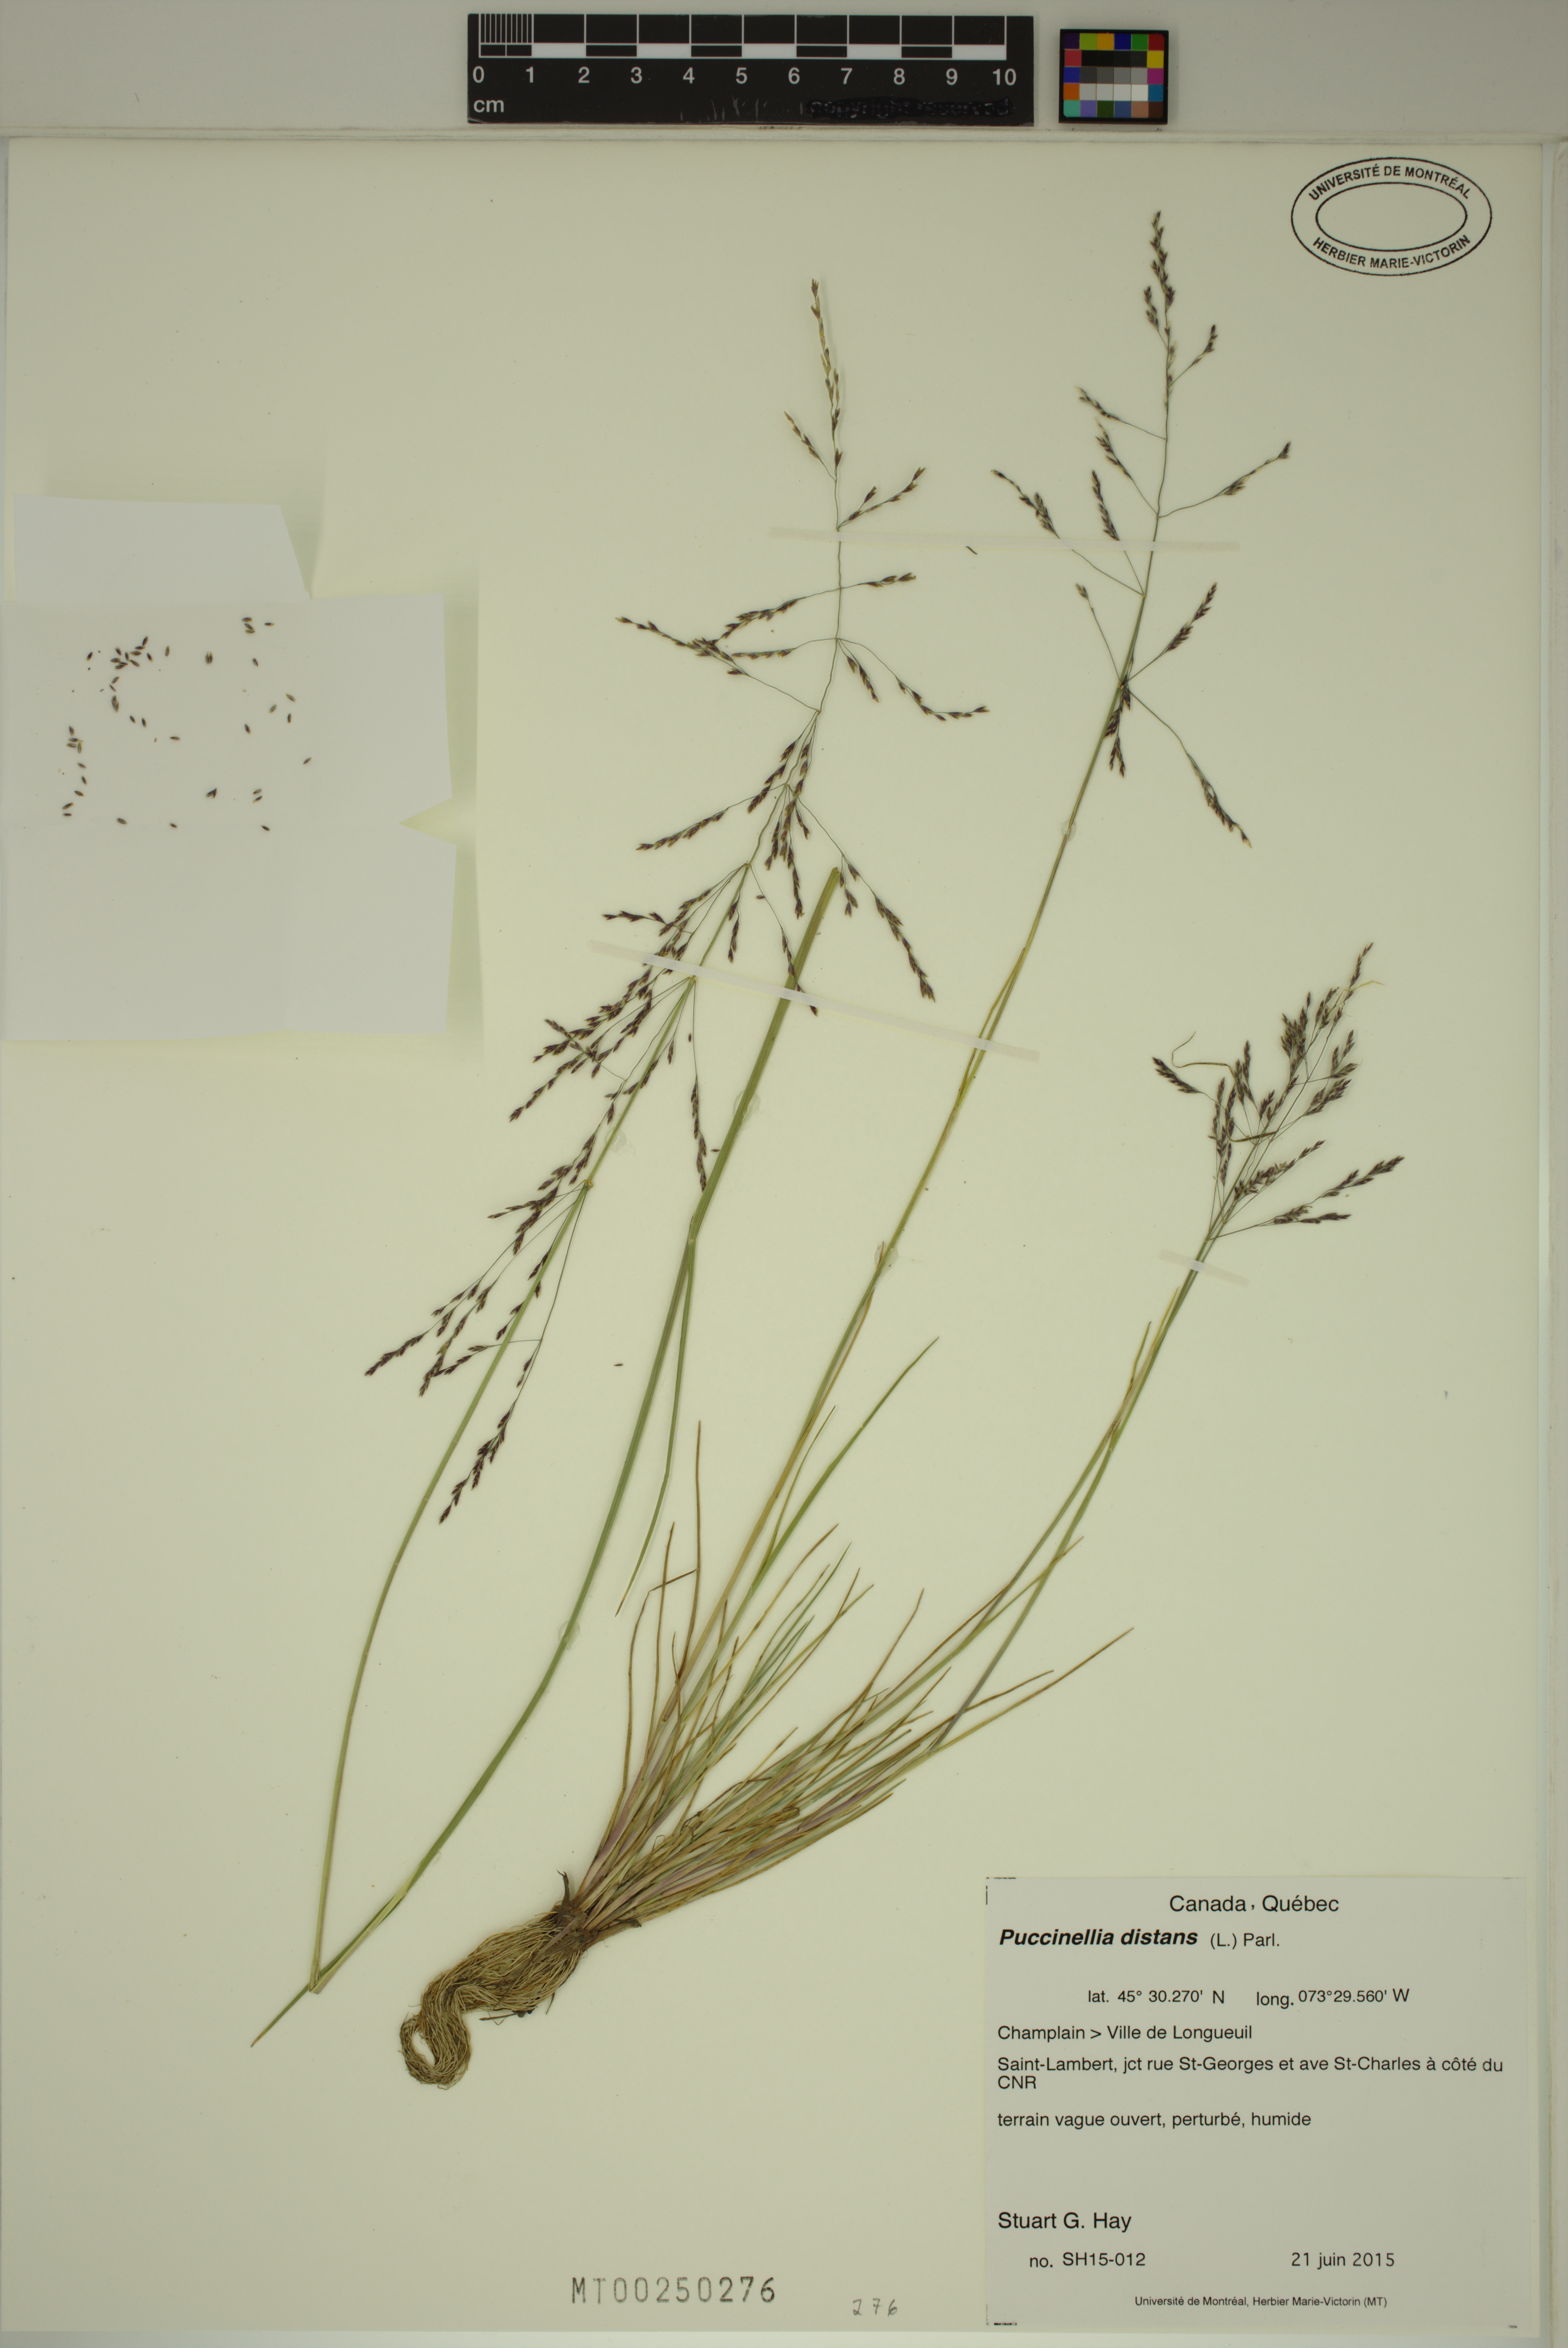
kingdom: Plantae
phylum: Tracheophyta
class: Liliopsida
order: Poales
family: Poaceae
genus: Puccinellia
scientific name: Puccinellia distans
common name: Weeping alkaligrass
